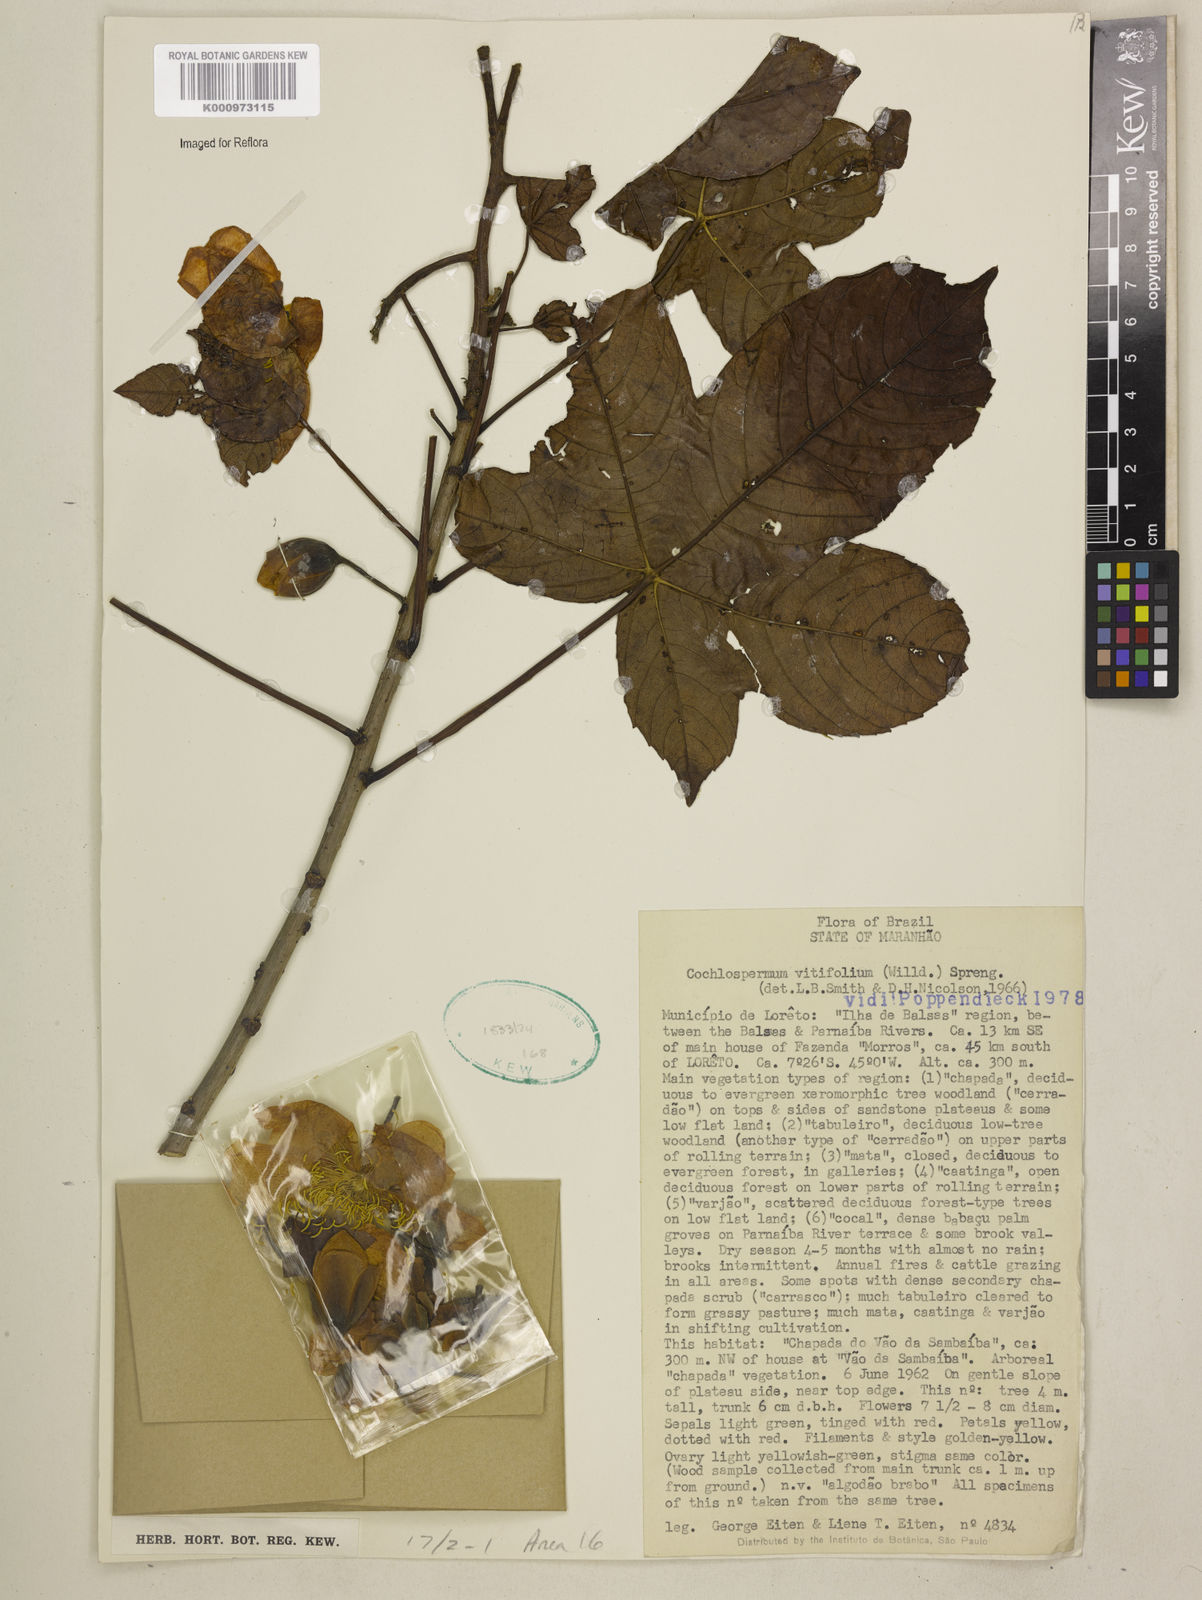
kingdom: Plantae
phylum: Tracheophyta
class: Magnoliopsida
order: Malvales
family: Cochlospermaceae
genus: Cochlospermum
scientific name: Cochlospermum regium
